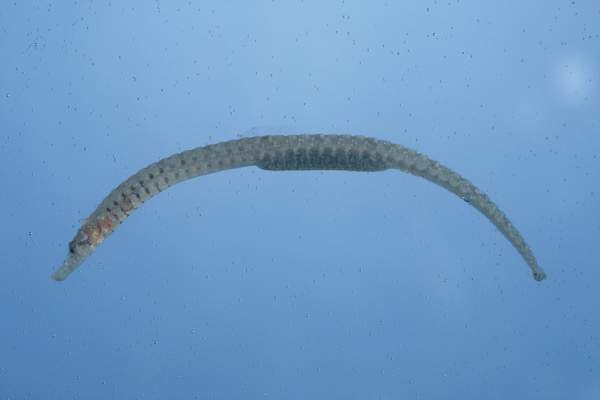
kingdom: Animalia
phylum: Chordata
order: Syngnathiformes
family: Syngnathidae
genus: Cosmocampus
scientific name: Cosmocampus banneri
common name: Banner's pipefish
